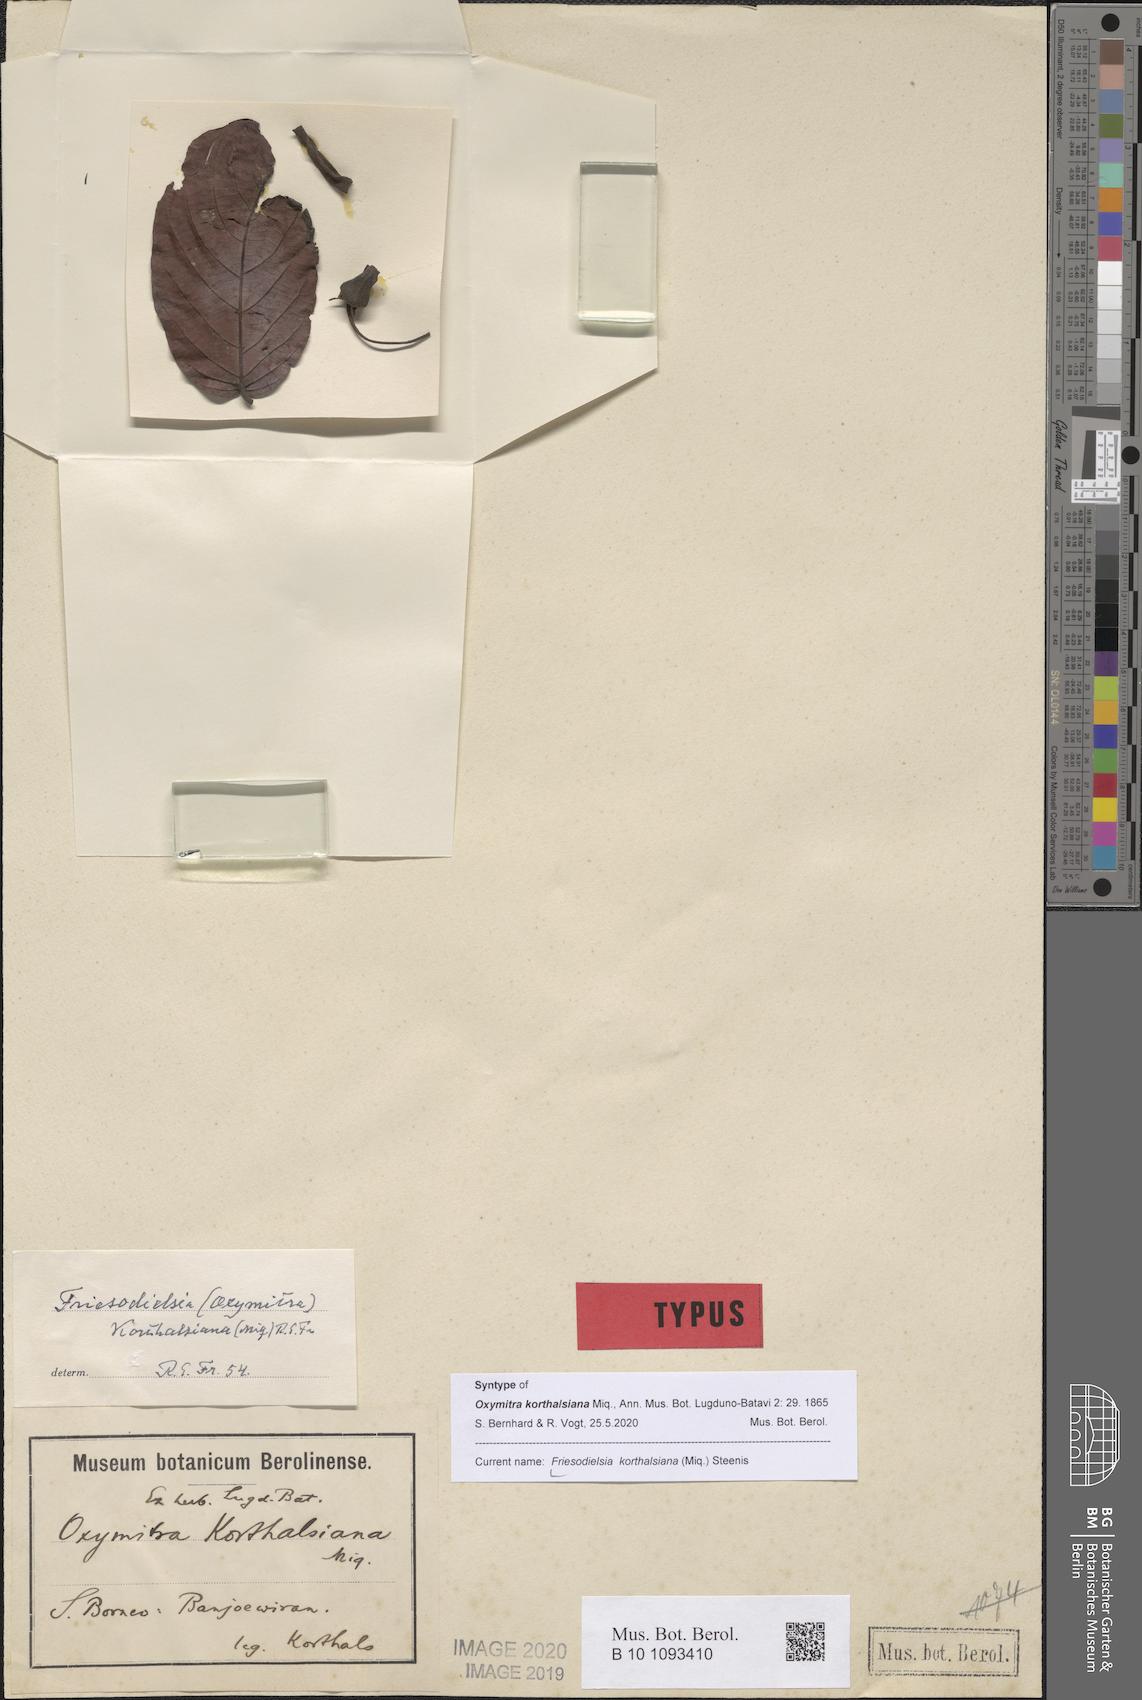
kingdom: Plantae
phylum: Tracheophyta
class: Magnoliopsida
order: Magnoliales
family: Annonaceae
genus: Friesodielsia
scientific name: Friesodielsia korthalsiana
